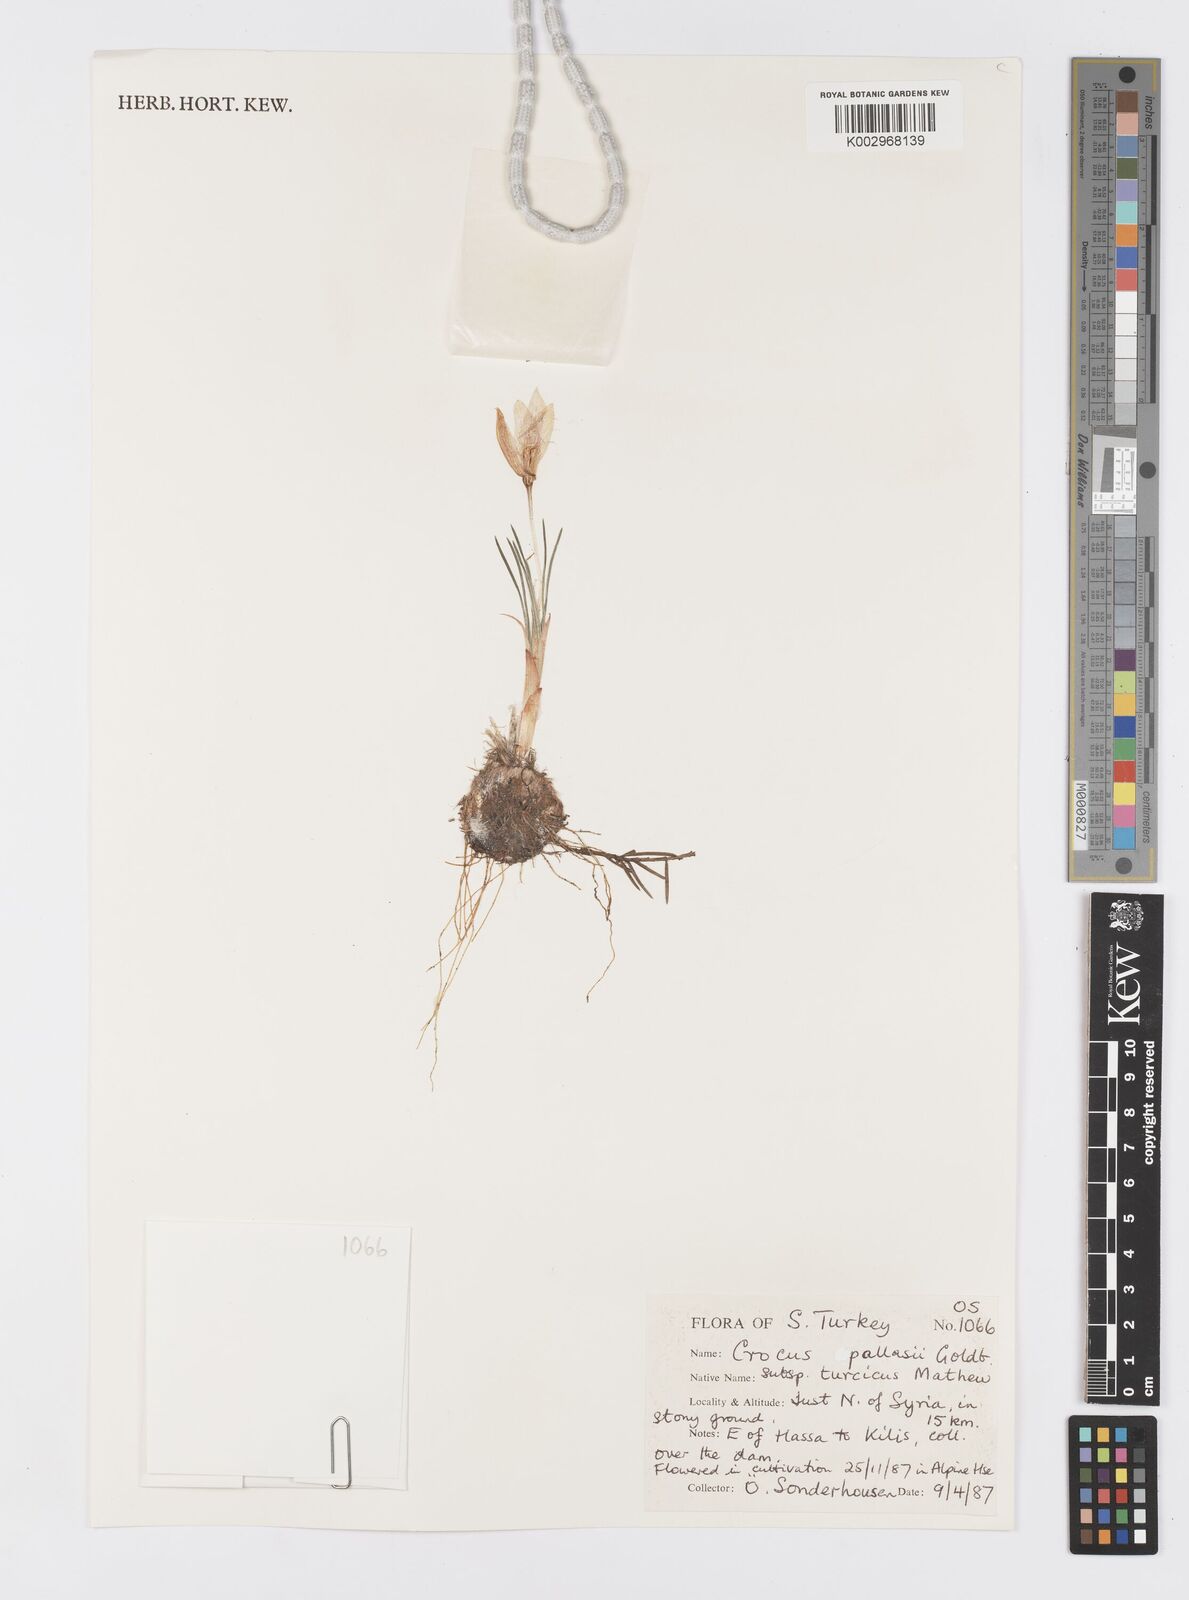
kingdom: Plantae
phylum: Tracheophyta
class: Liliopsida
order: Asparagales
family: Iridaceae
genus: Crocus
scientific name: Crocus turcicus
